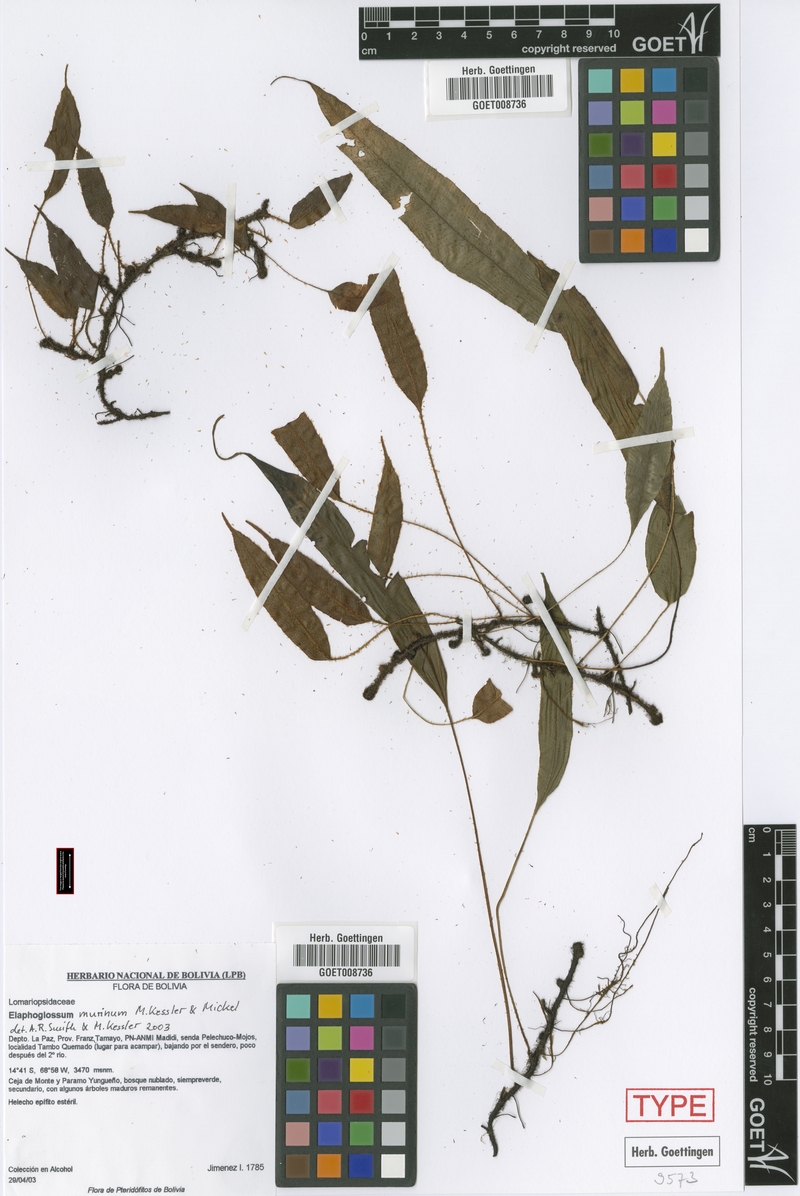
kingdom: Plantae
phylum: Tracheophyta
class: Polypodiopsida
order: Polypodiales
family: Dryopteridaceae
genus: Elaphoglossum
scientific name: Elaphoglossum murinum
